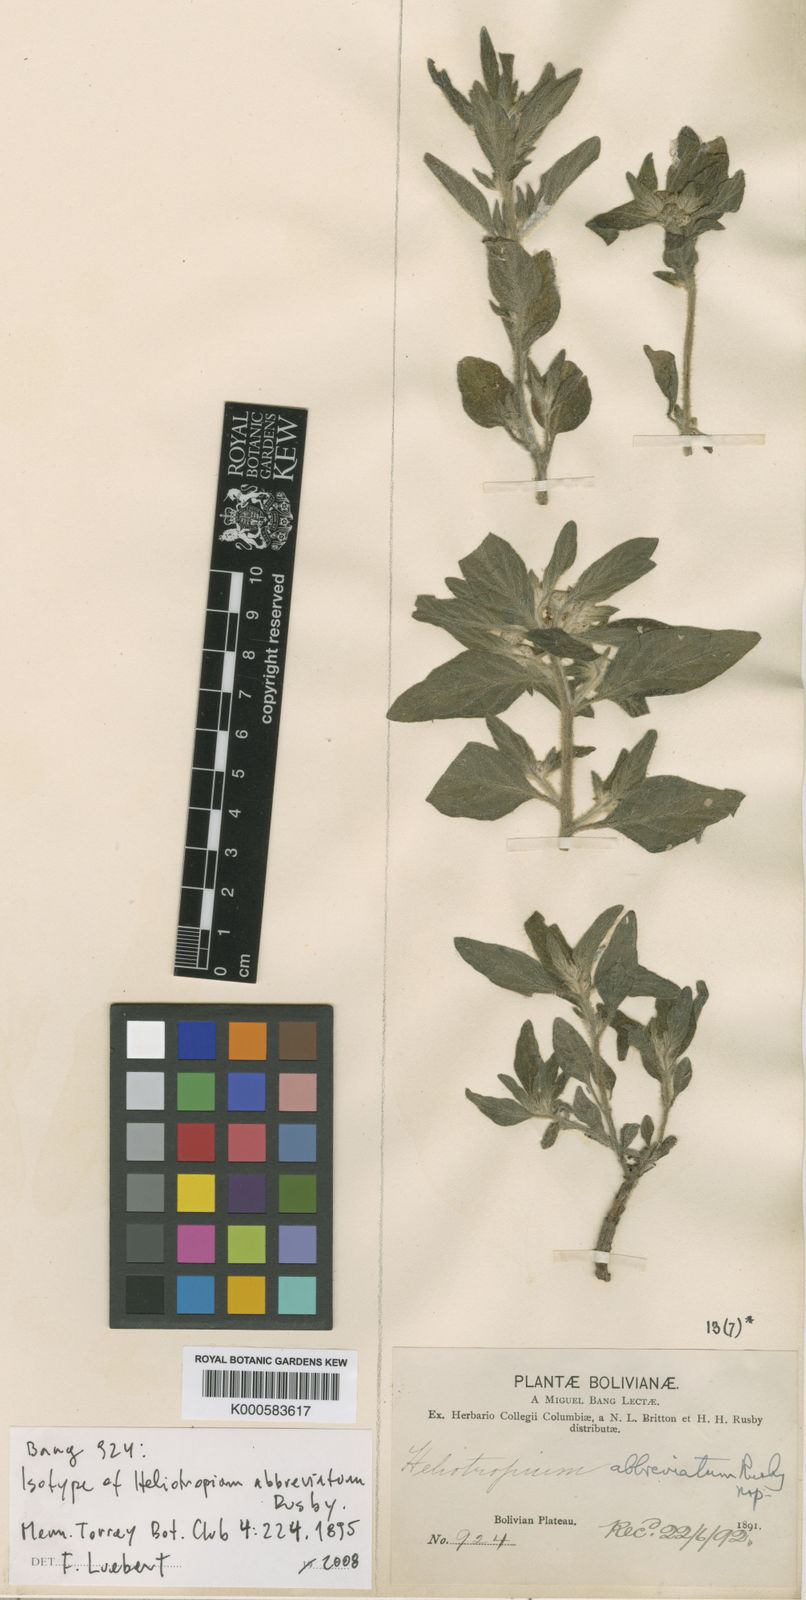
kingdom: Plantae
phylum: Tracheophyta
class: Magnoliopsida
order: Boraginales
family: Heliotropiaceae
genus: Heliotropium
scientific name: Heliotropium abbreviatum
